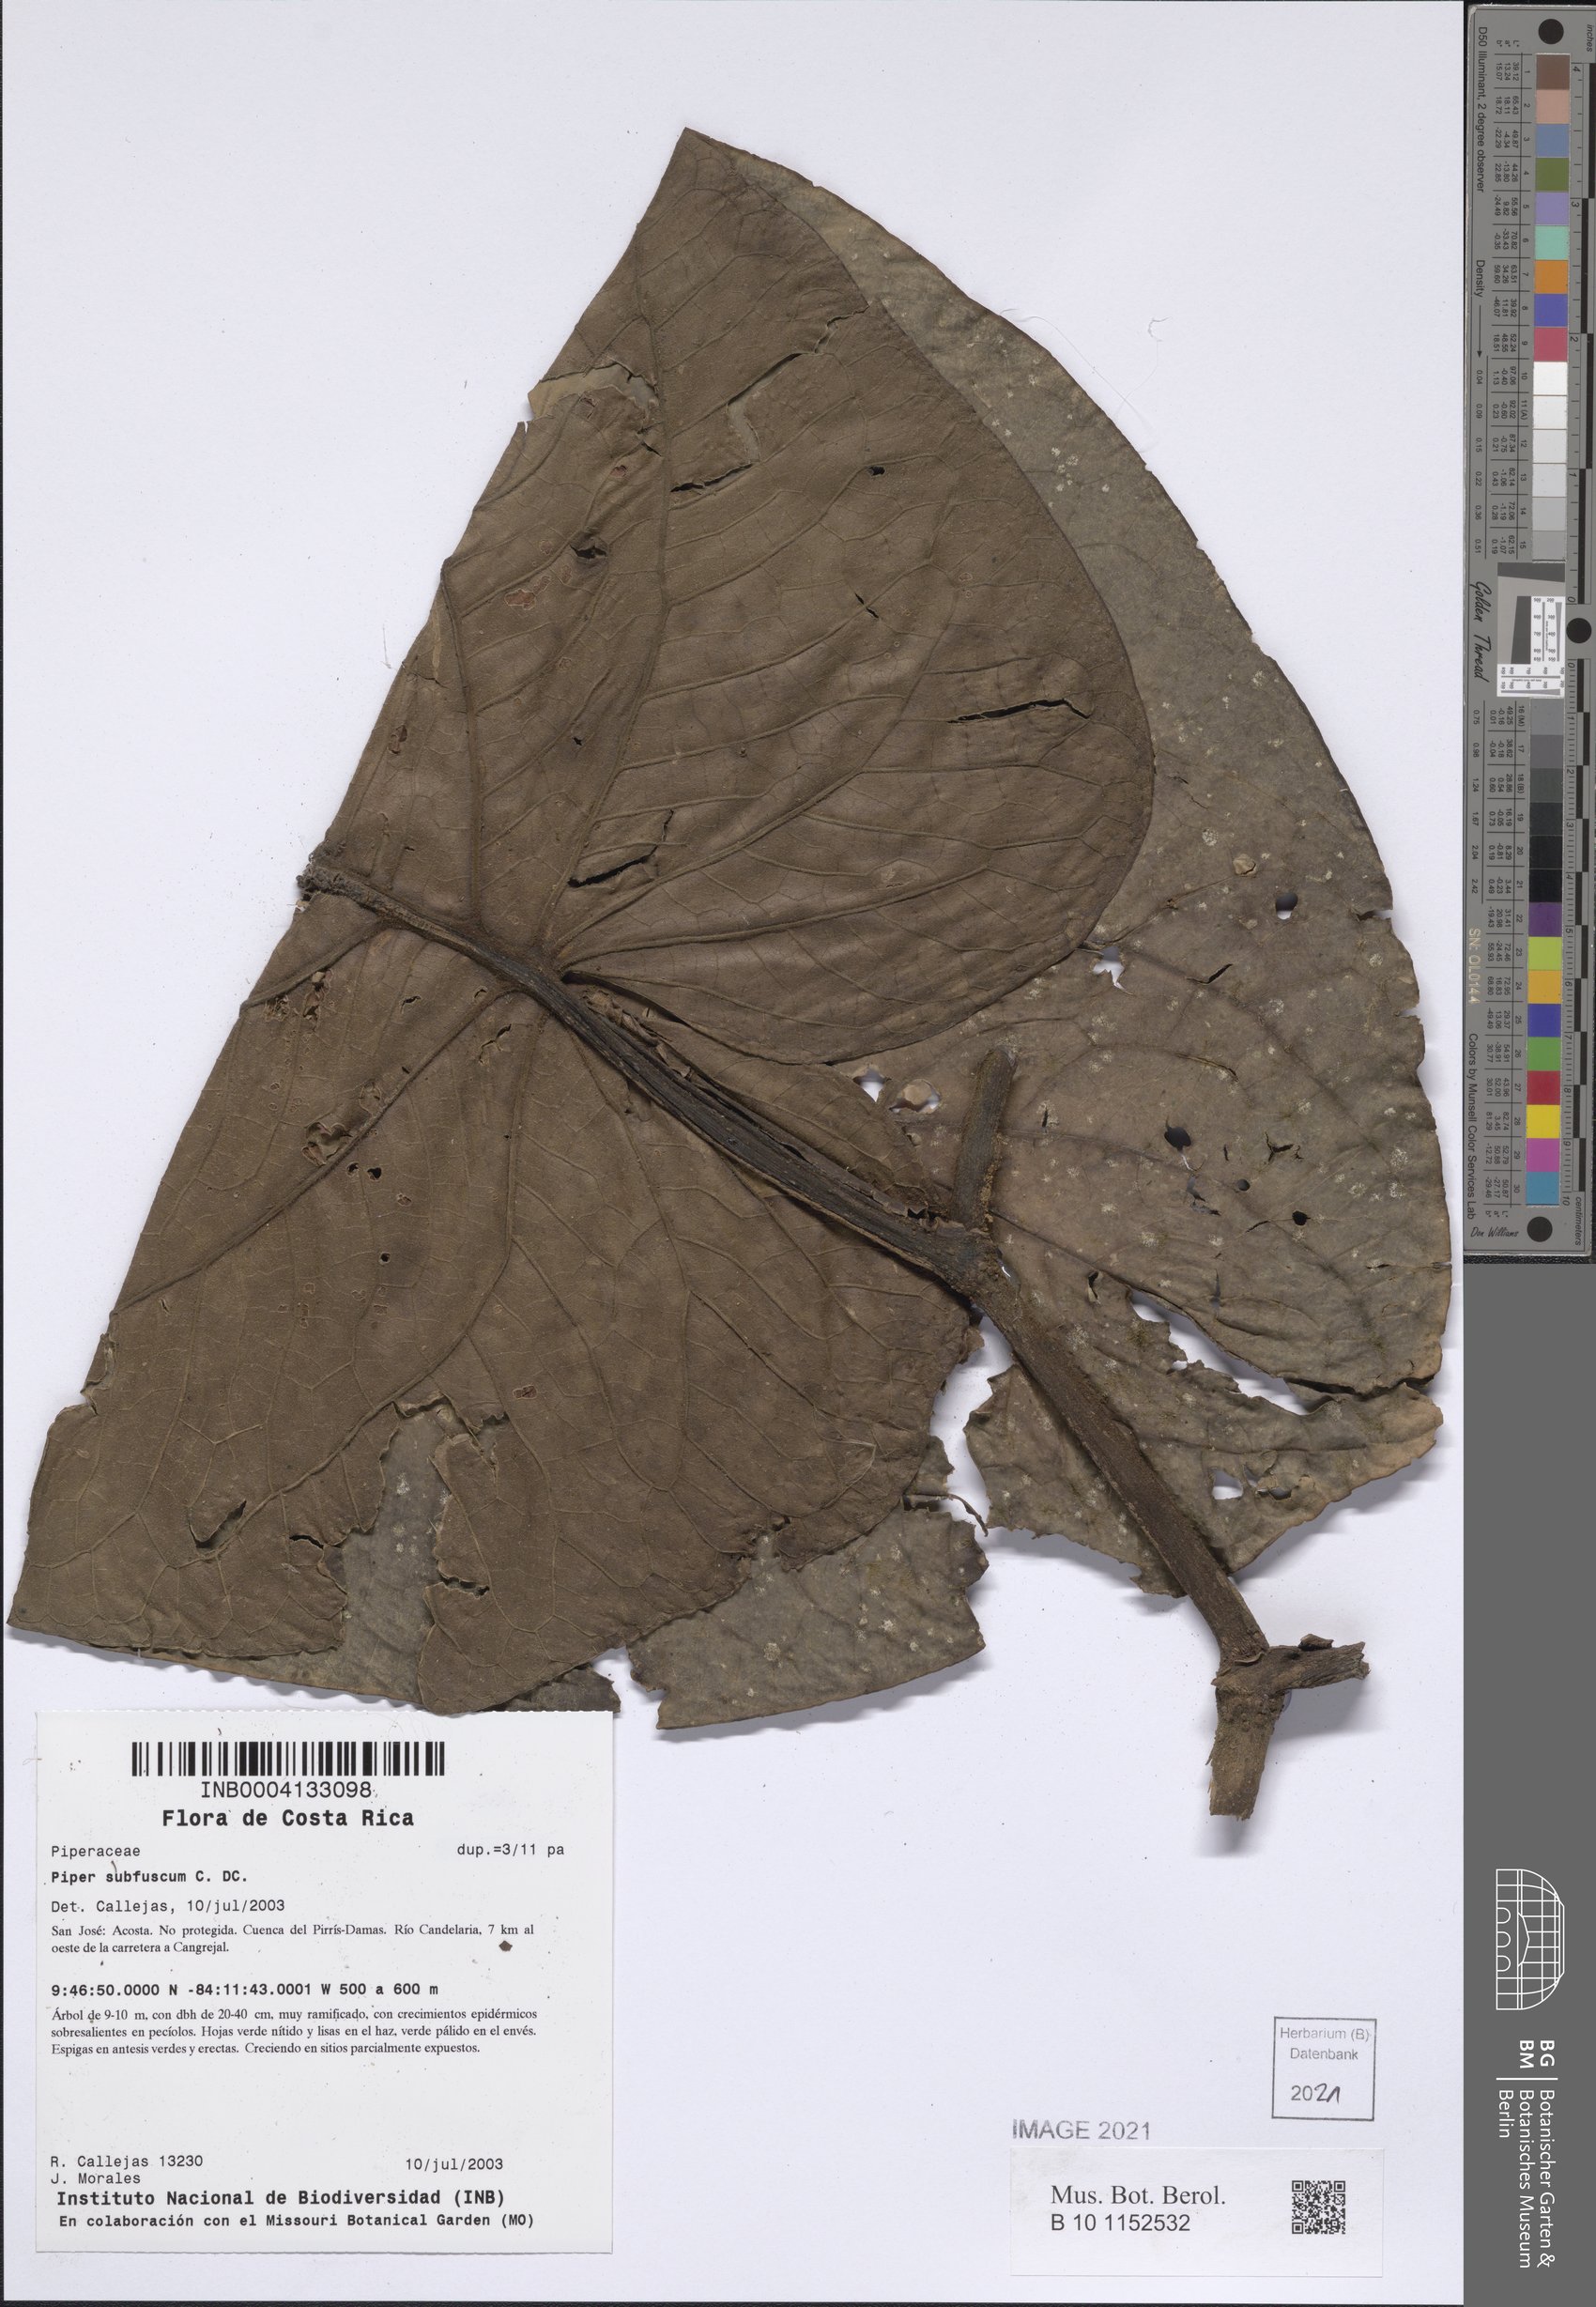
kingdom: Plantae
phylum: Tracheophyta
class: Magnoliopsida
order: Piperales
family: Piperaceae
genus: Piper
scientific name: Piper subfuscum
